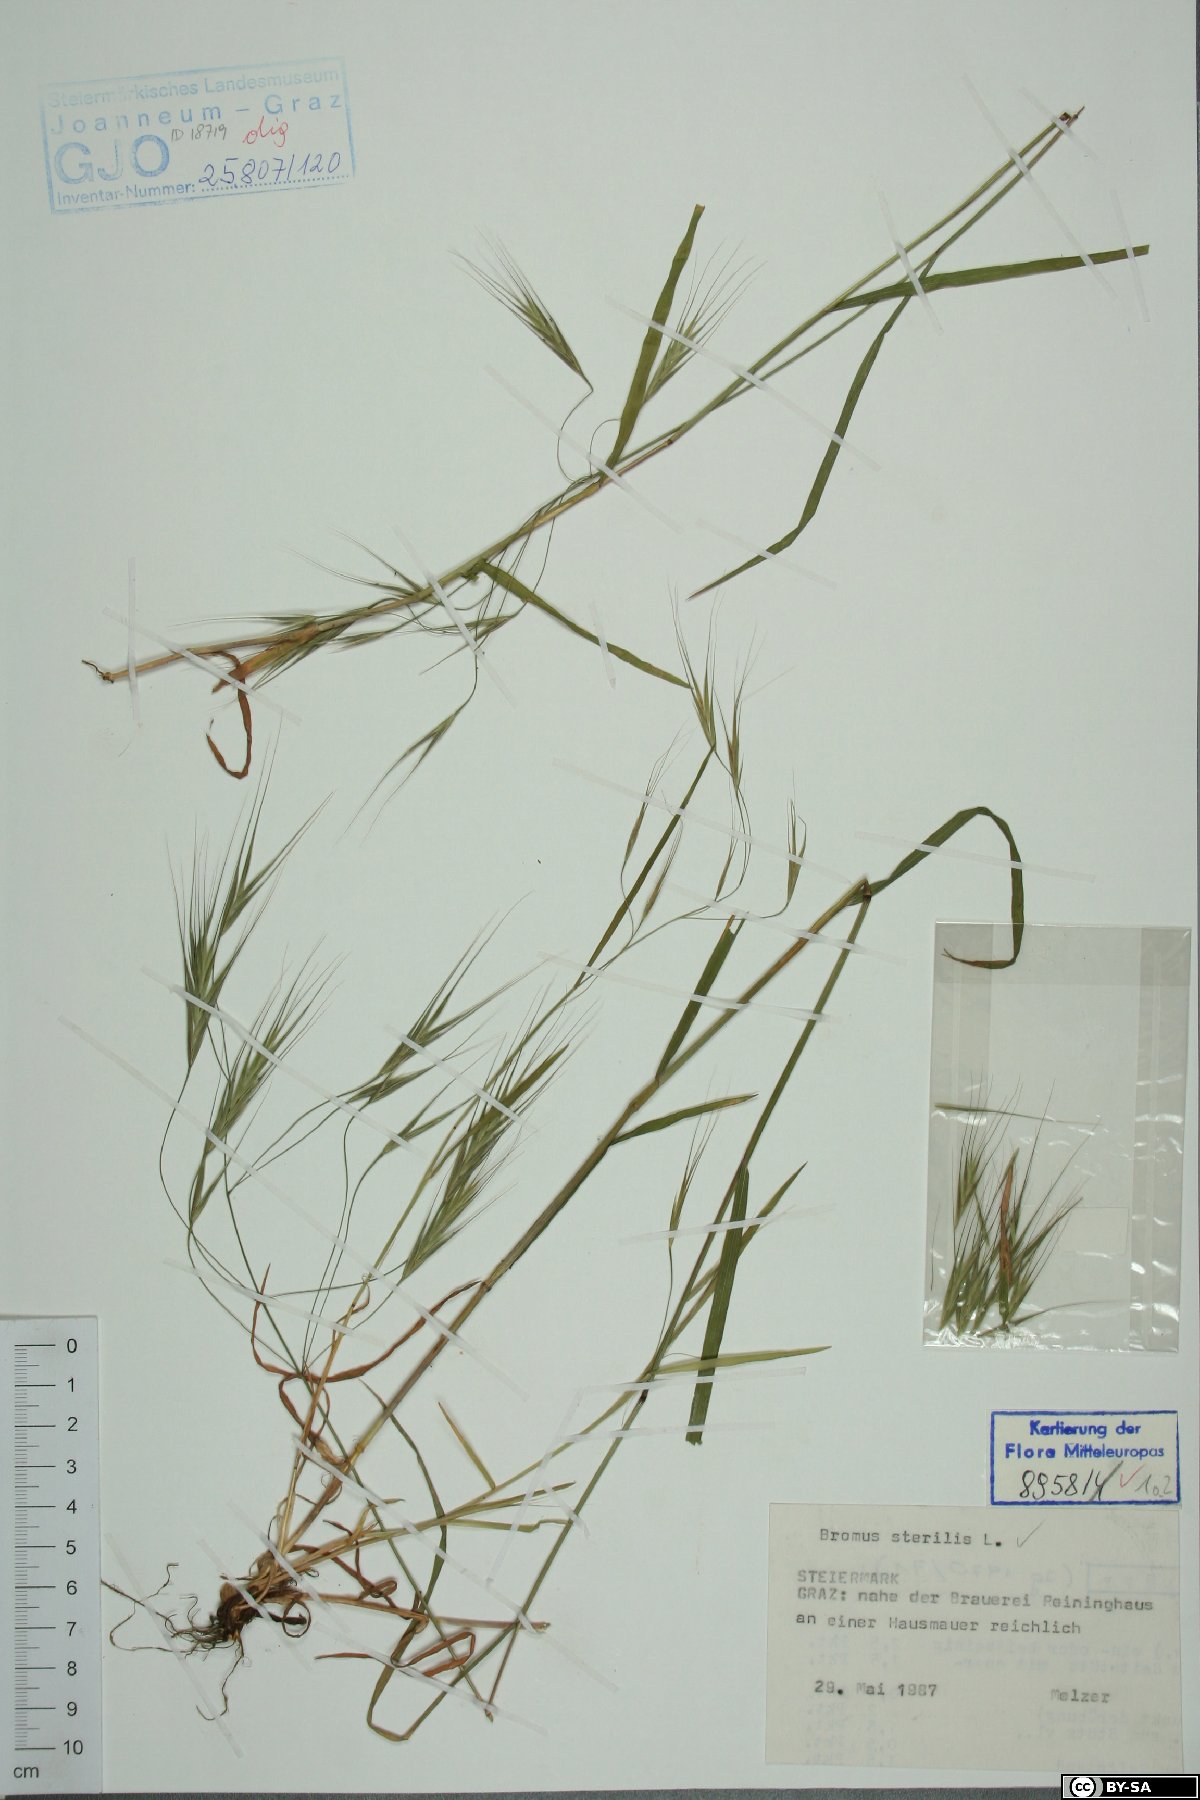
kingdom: Plantae
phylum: Tracheophyta
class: Liliopsida
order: Poales
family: Poaceae
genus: Bromus
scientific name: Bromus sterilis
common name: Poverty brome
